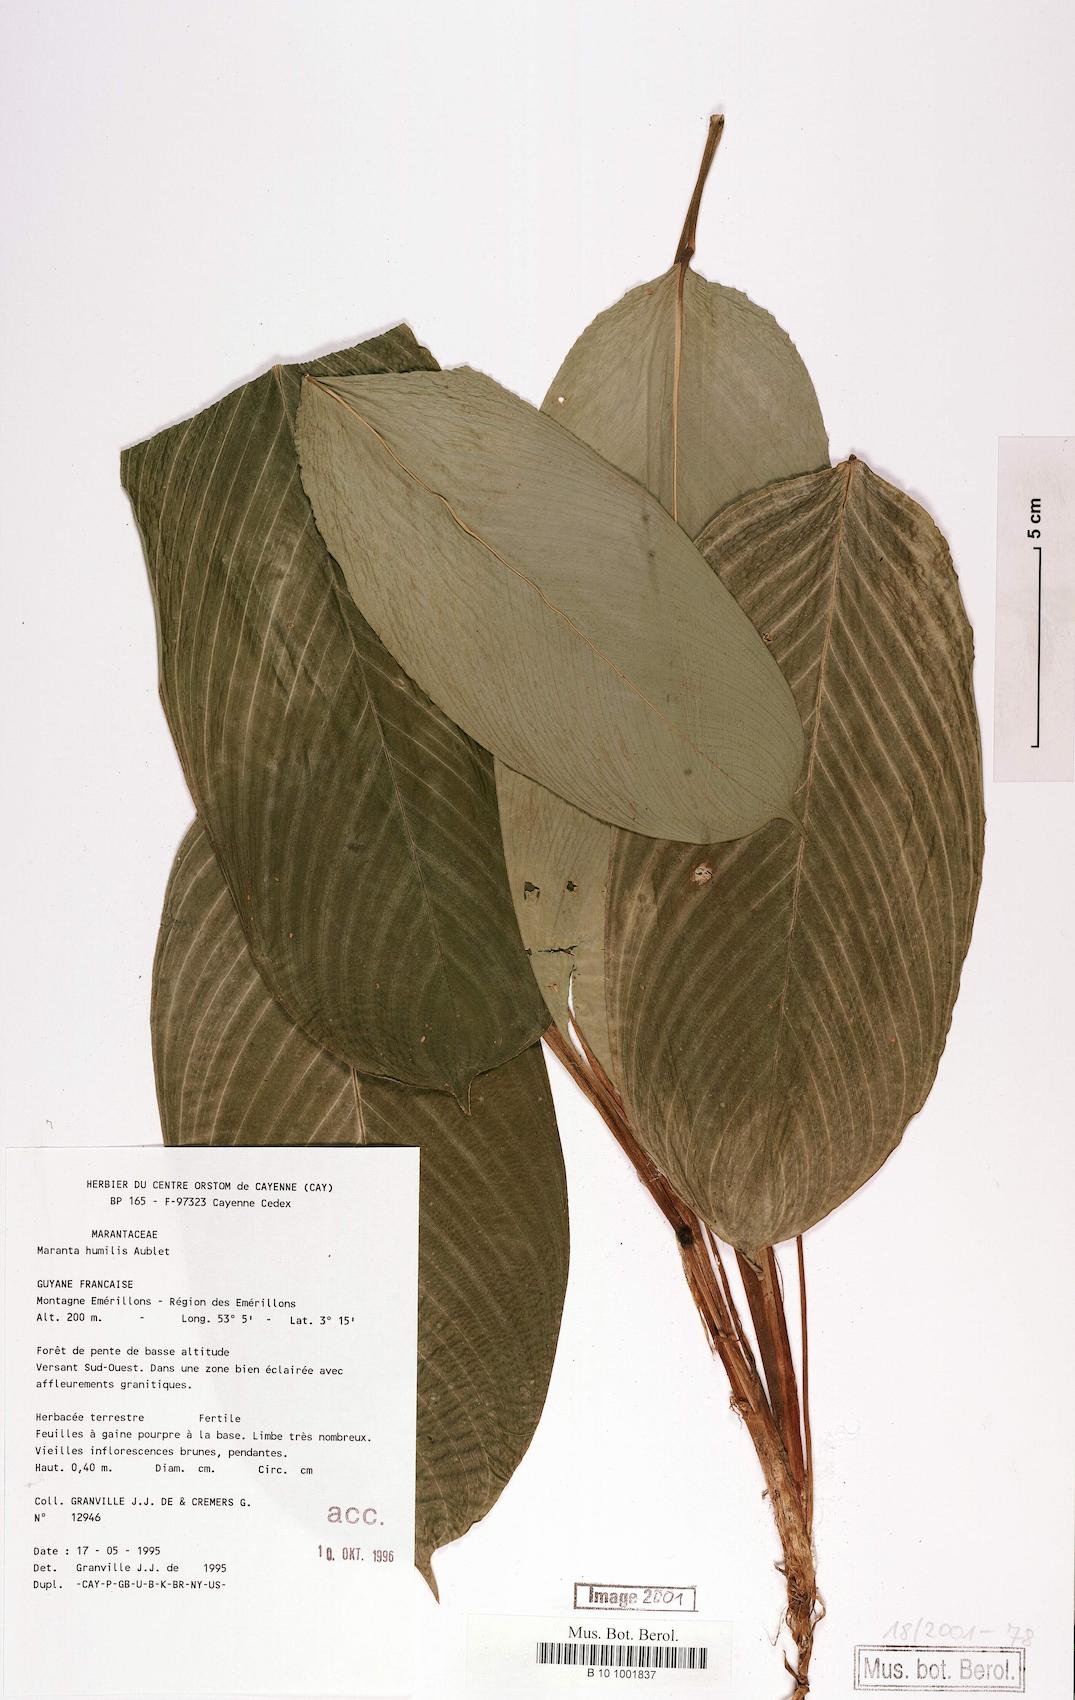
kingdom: Plantae
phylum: Tracheophyta
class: Liliopsida
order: Zingiberales
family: Marantaceae
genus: Maranta
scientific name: Maranta humilis
